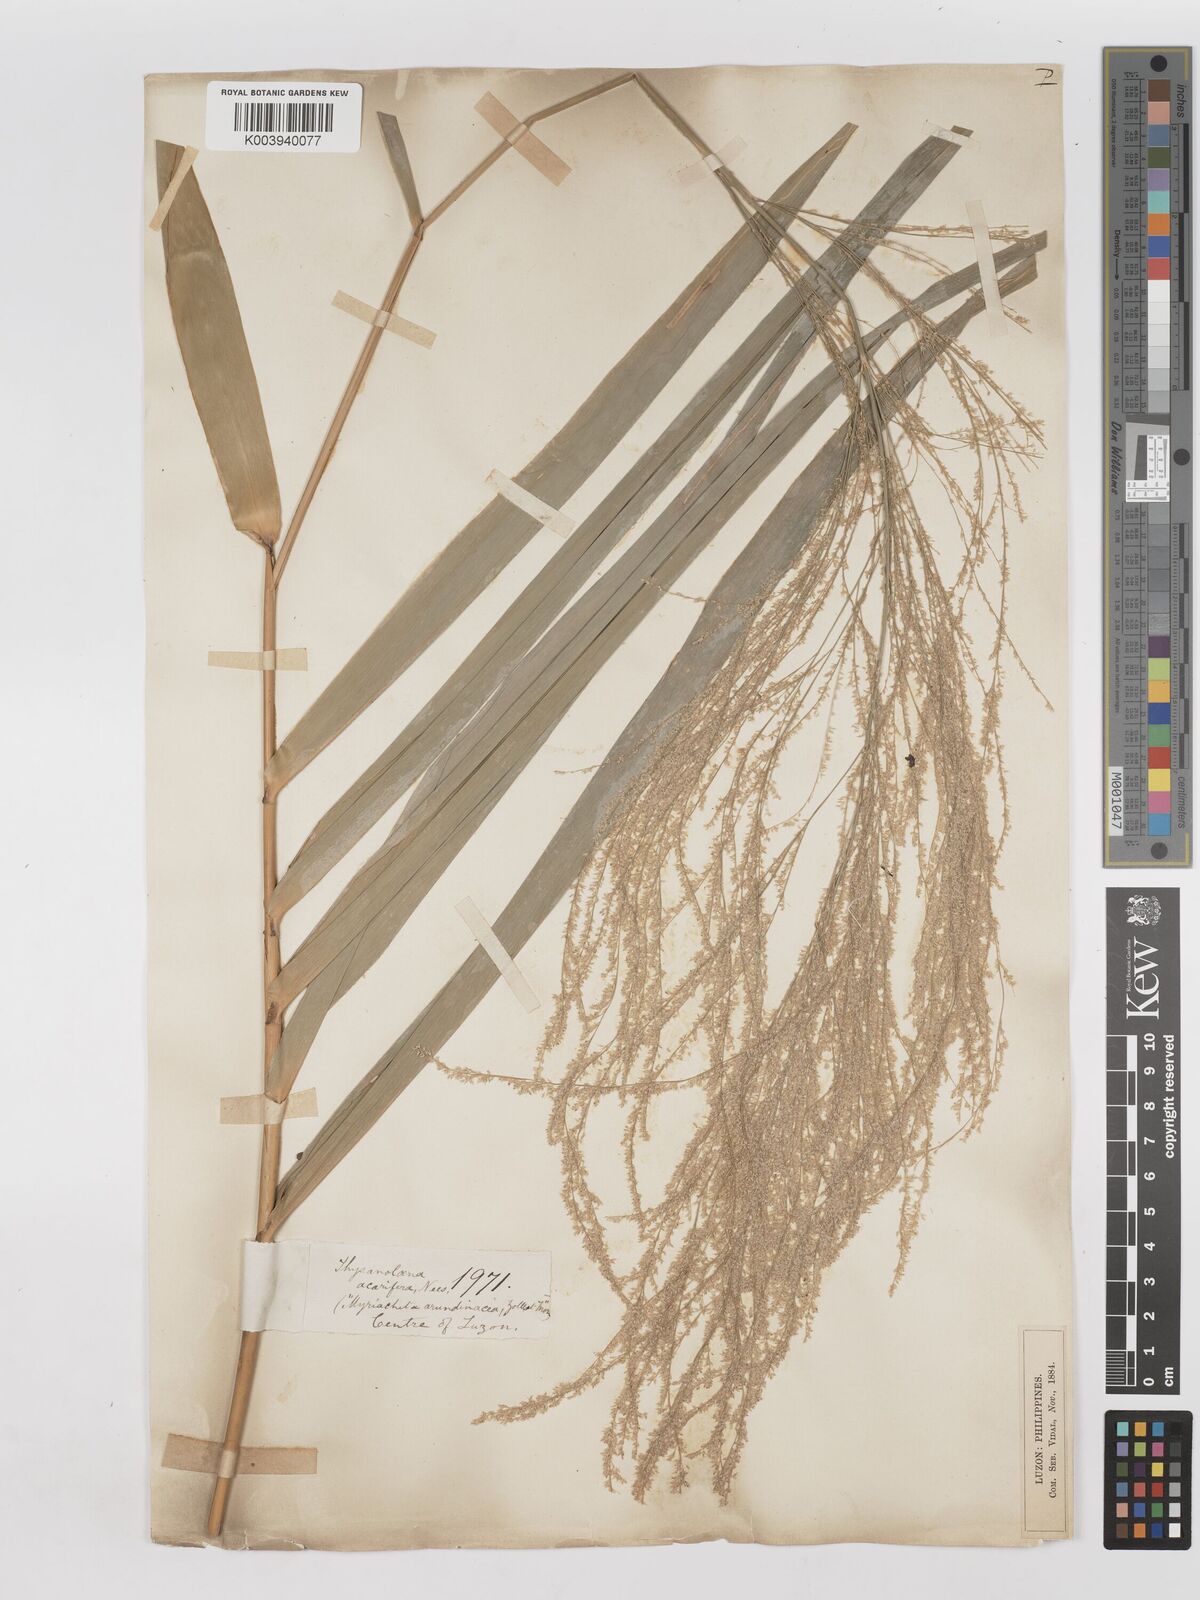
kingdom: Plantae
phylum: Tracheophyta
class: Liliopsida
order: Poales
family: Poaceae
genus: Thysanolaena
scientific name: Thysanolaena latifolia
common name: Tiger grass
